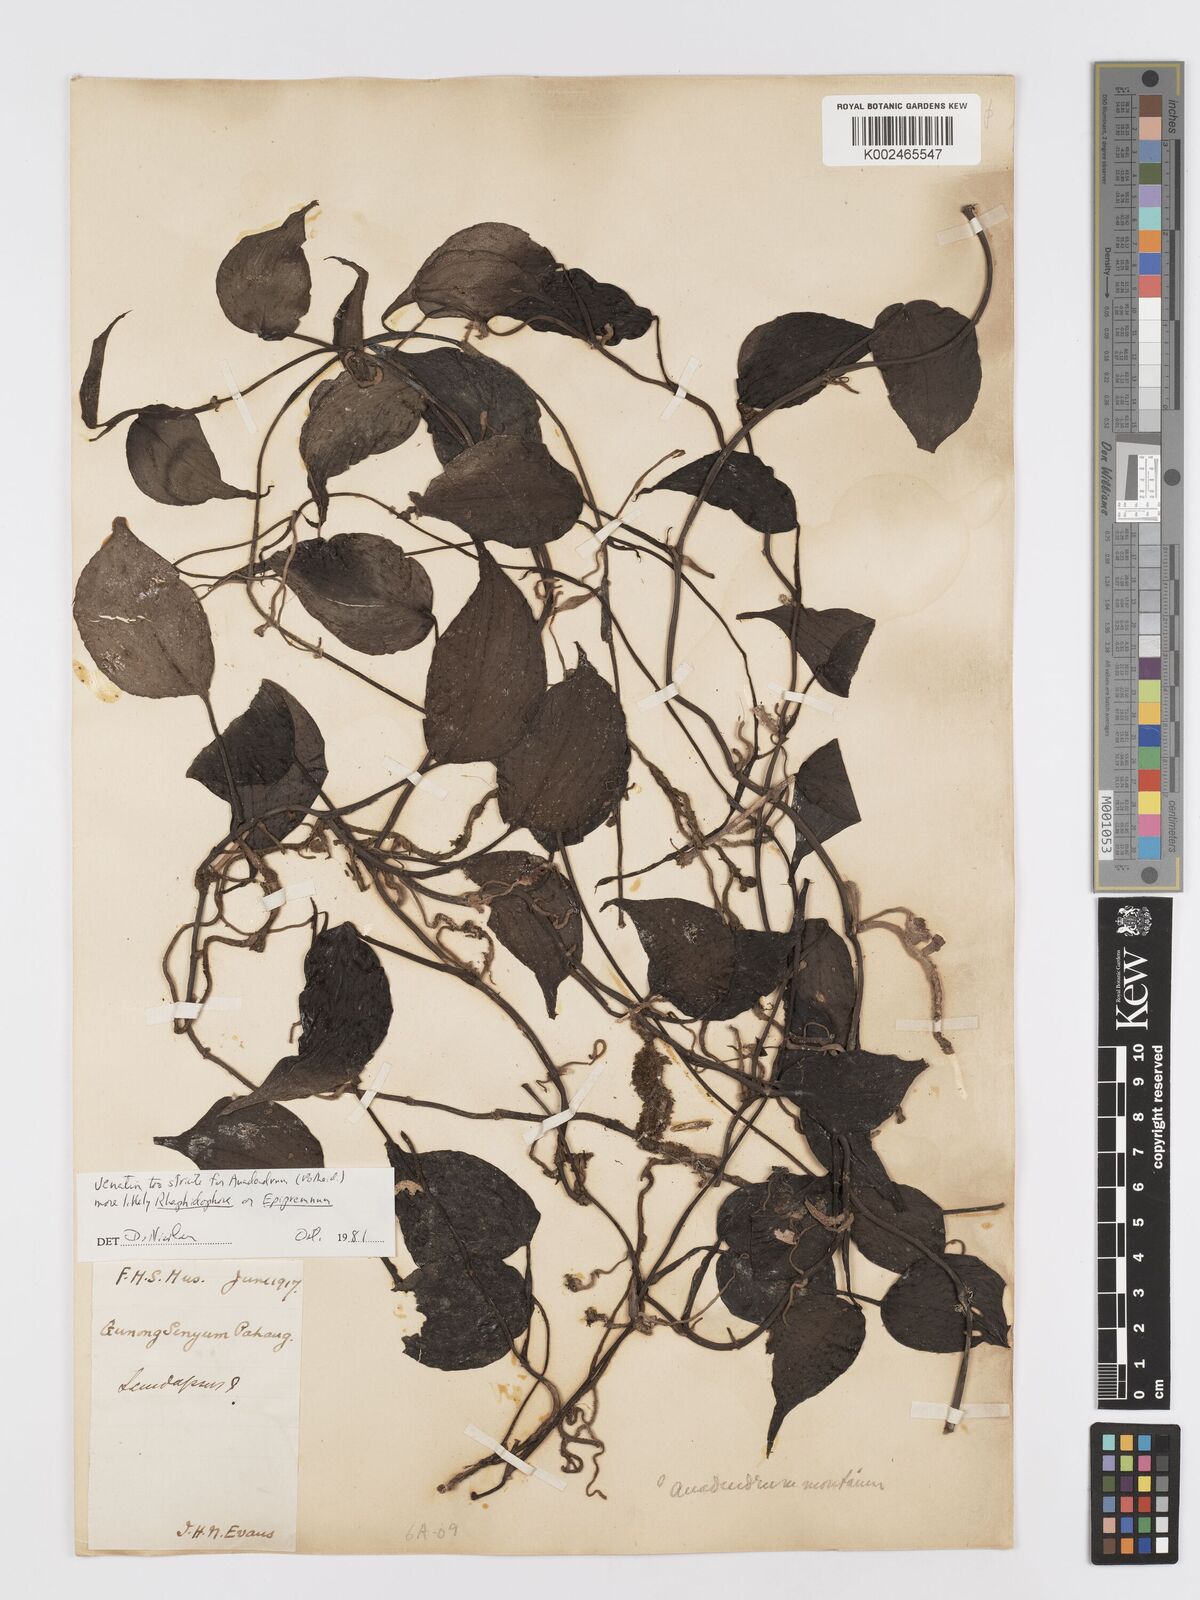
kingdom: Plantae
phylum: Tracheophyta
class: Liliopsida
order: Alismatales
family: Araceae
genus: Rhaphidophora
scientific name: Rhaphidophora
